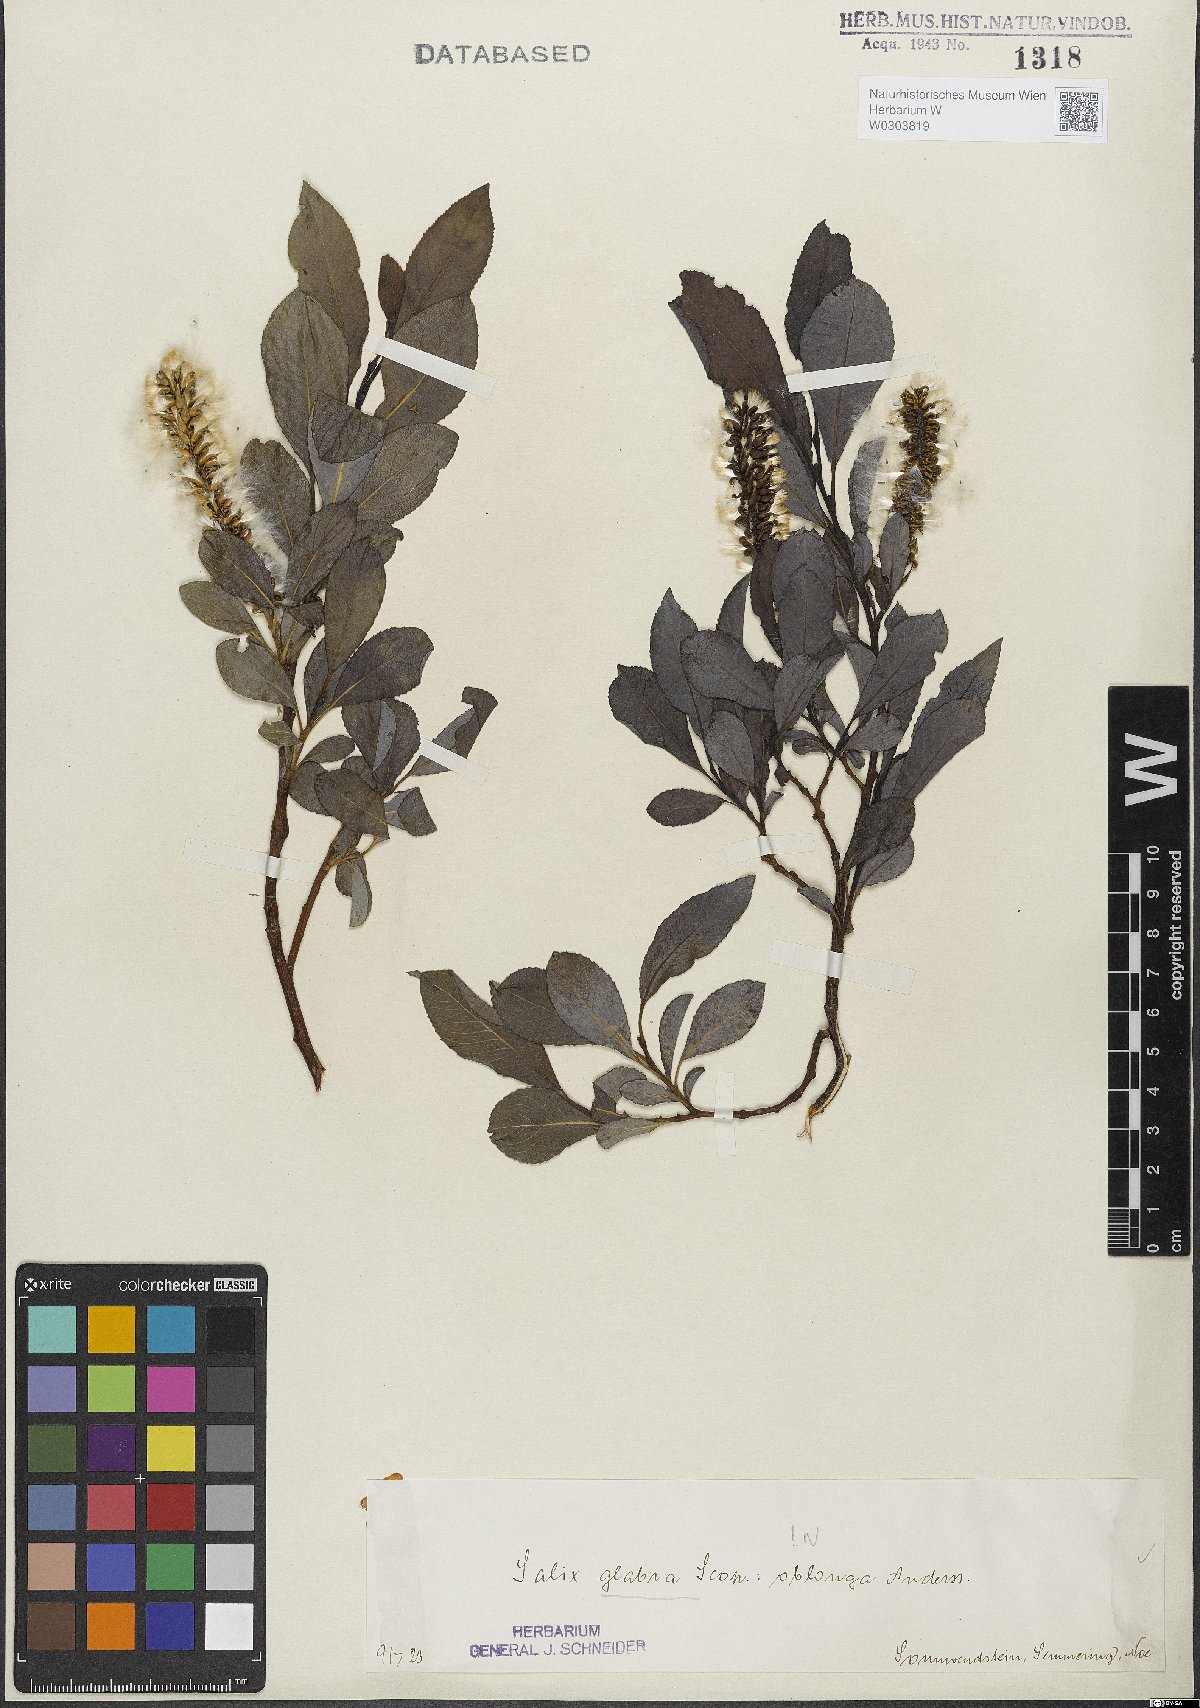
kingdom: Plantae
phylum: Tracheophyta
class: Magnoliopsida
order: Malpighiales
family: Salicaceae
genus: Salix
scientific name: Salix glabra
